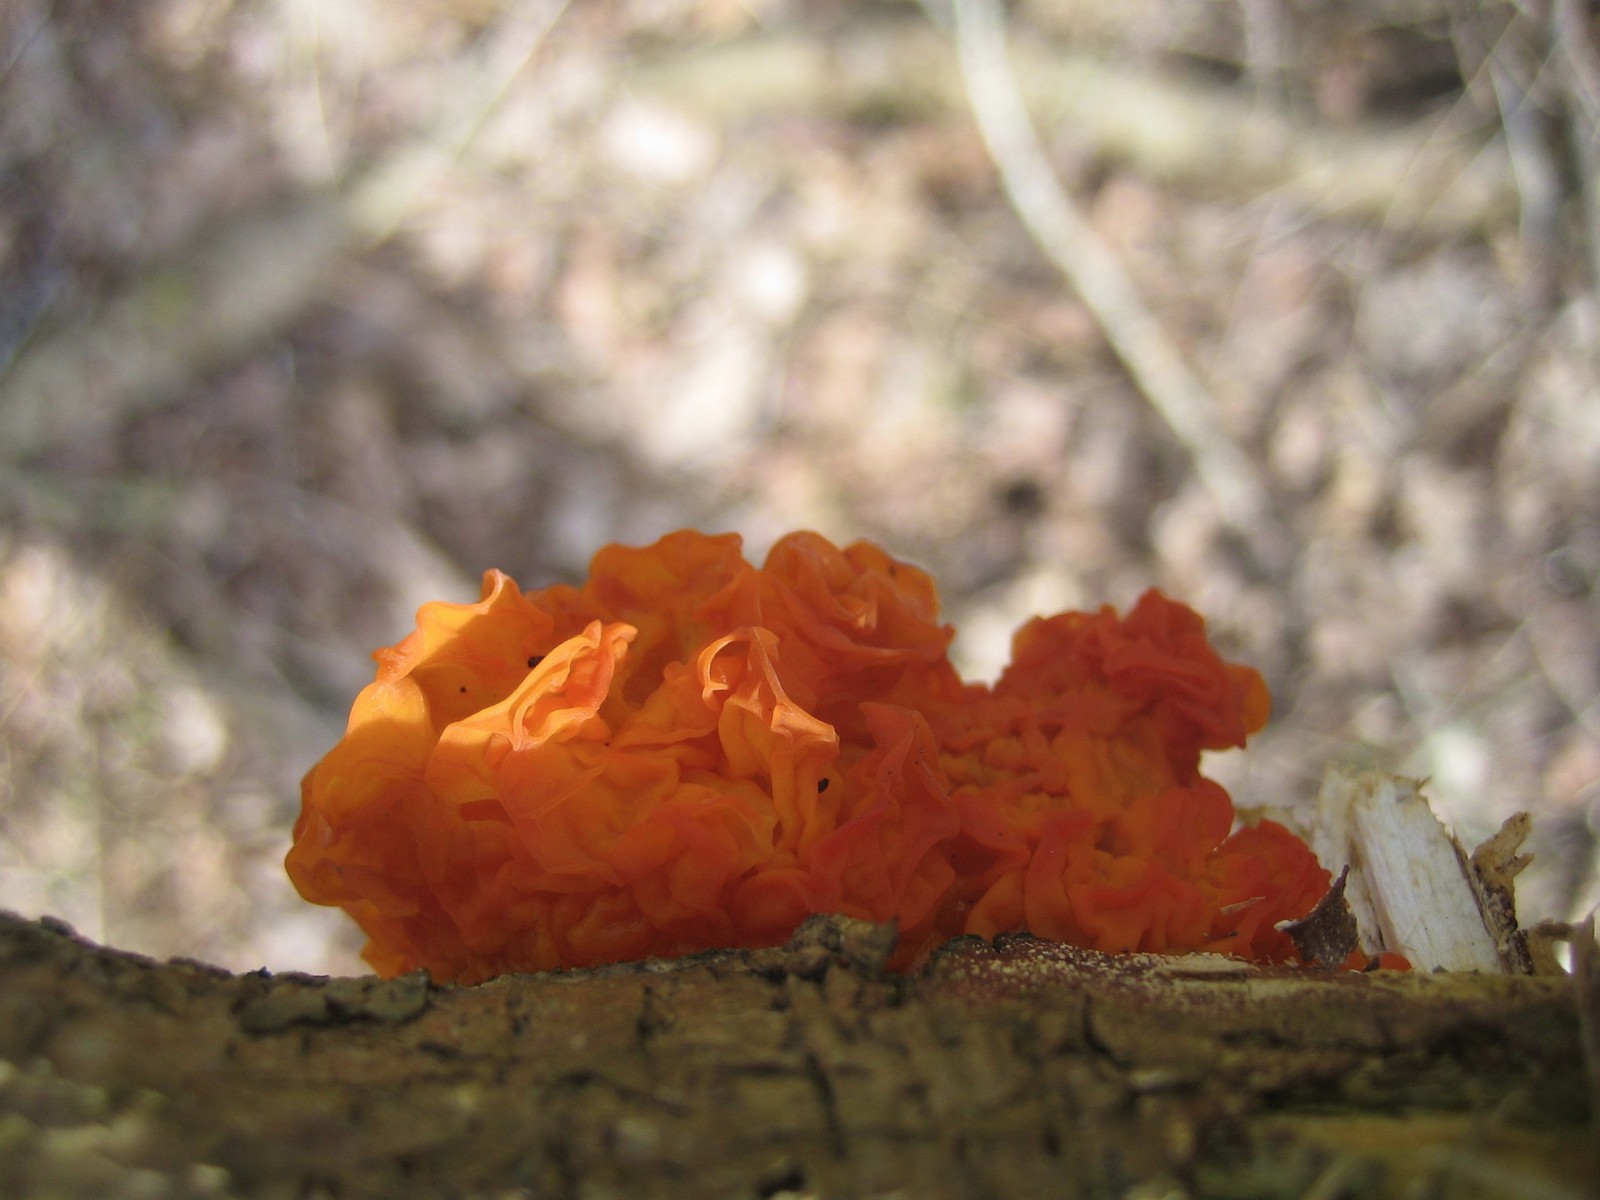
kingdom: Fungi
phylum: Basidiomycota
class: Tremellomycetes
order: Tremellales
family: Tremellaceae
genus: Tremella
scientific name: Tremella mesenterica
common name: gul bævresvamp
